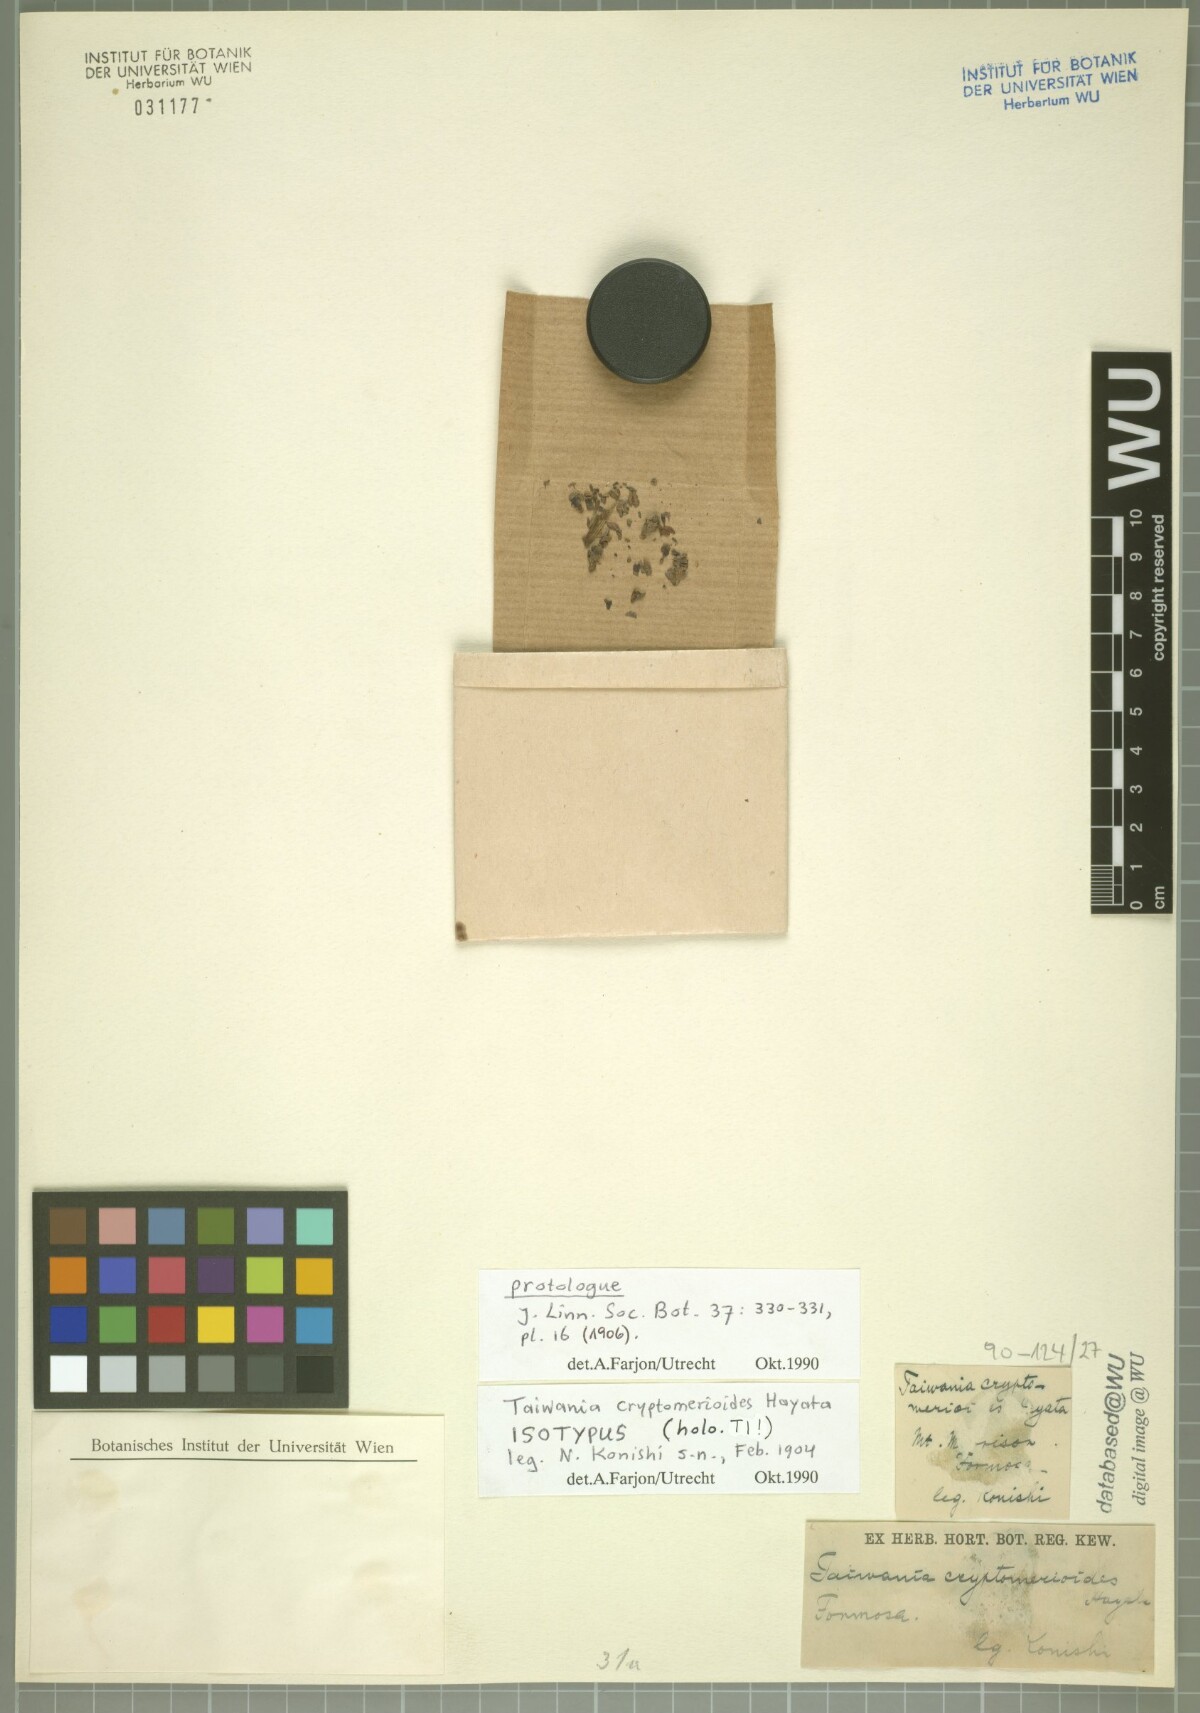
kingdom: Plantae
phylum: Tracheophyta
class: Pinopsida
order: Pinales
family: Cupressaceae
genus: Taiwania
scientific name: Taiwania cryptomerioides
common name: Coffin tree
